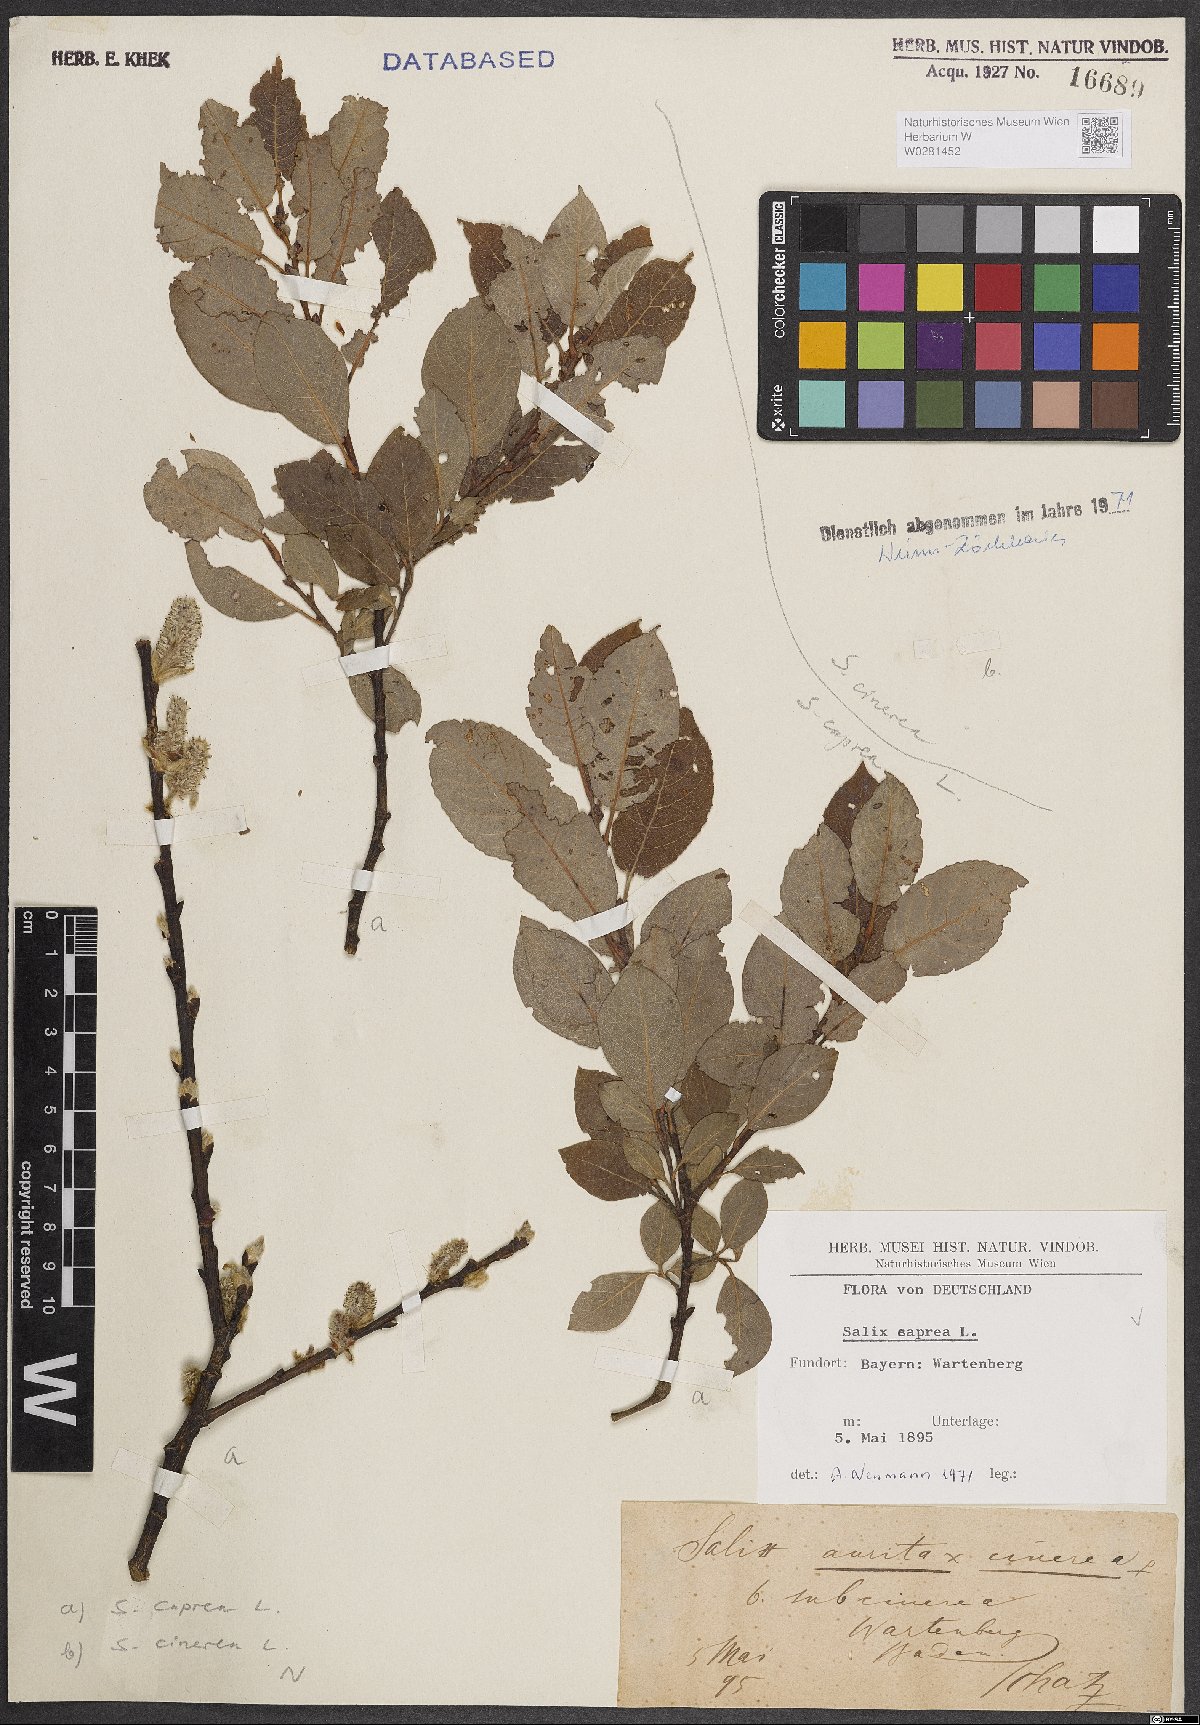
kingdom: Plantae
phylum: Tracheophyta
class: Magnoliopsida
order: Malpighiales
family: Salicaceae
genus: Salix
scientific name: Salix caprea
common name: Goat willow
